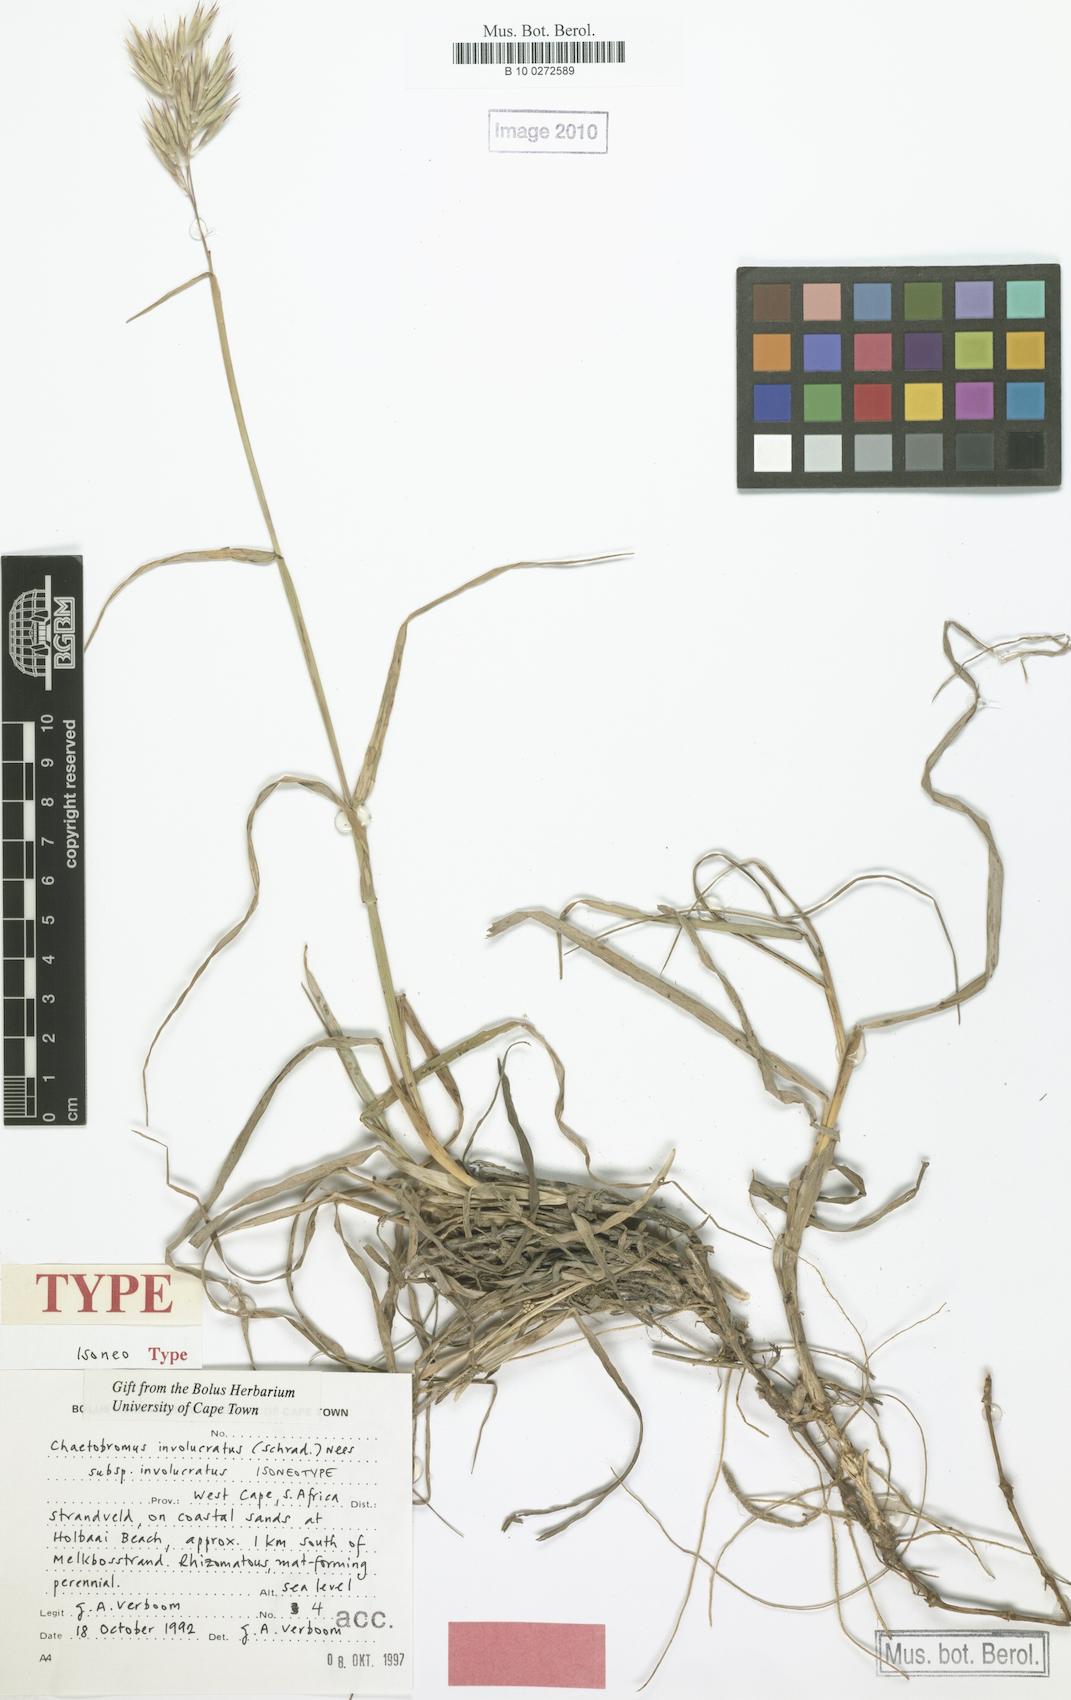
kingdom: Plantae
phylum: Tracheophyta
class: Liliopsida
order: Poales
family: Poaceae
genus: Chaetobromus
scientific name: Chaetobromus involucratus
